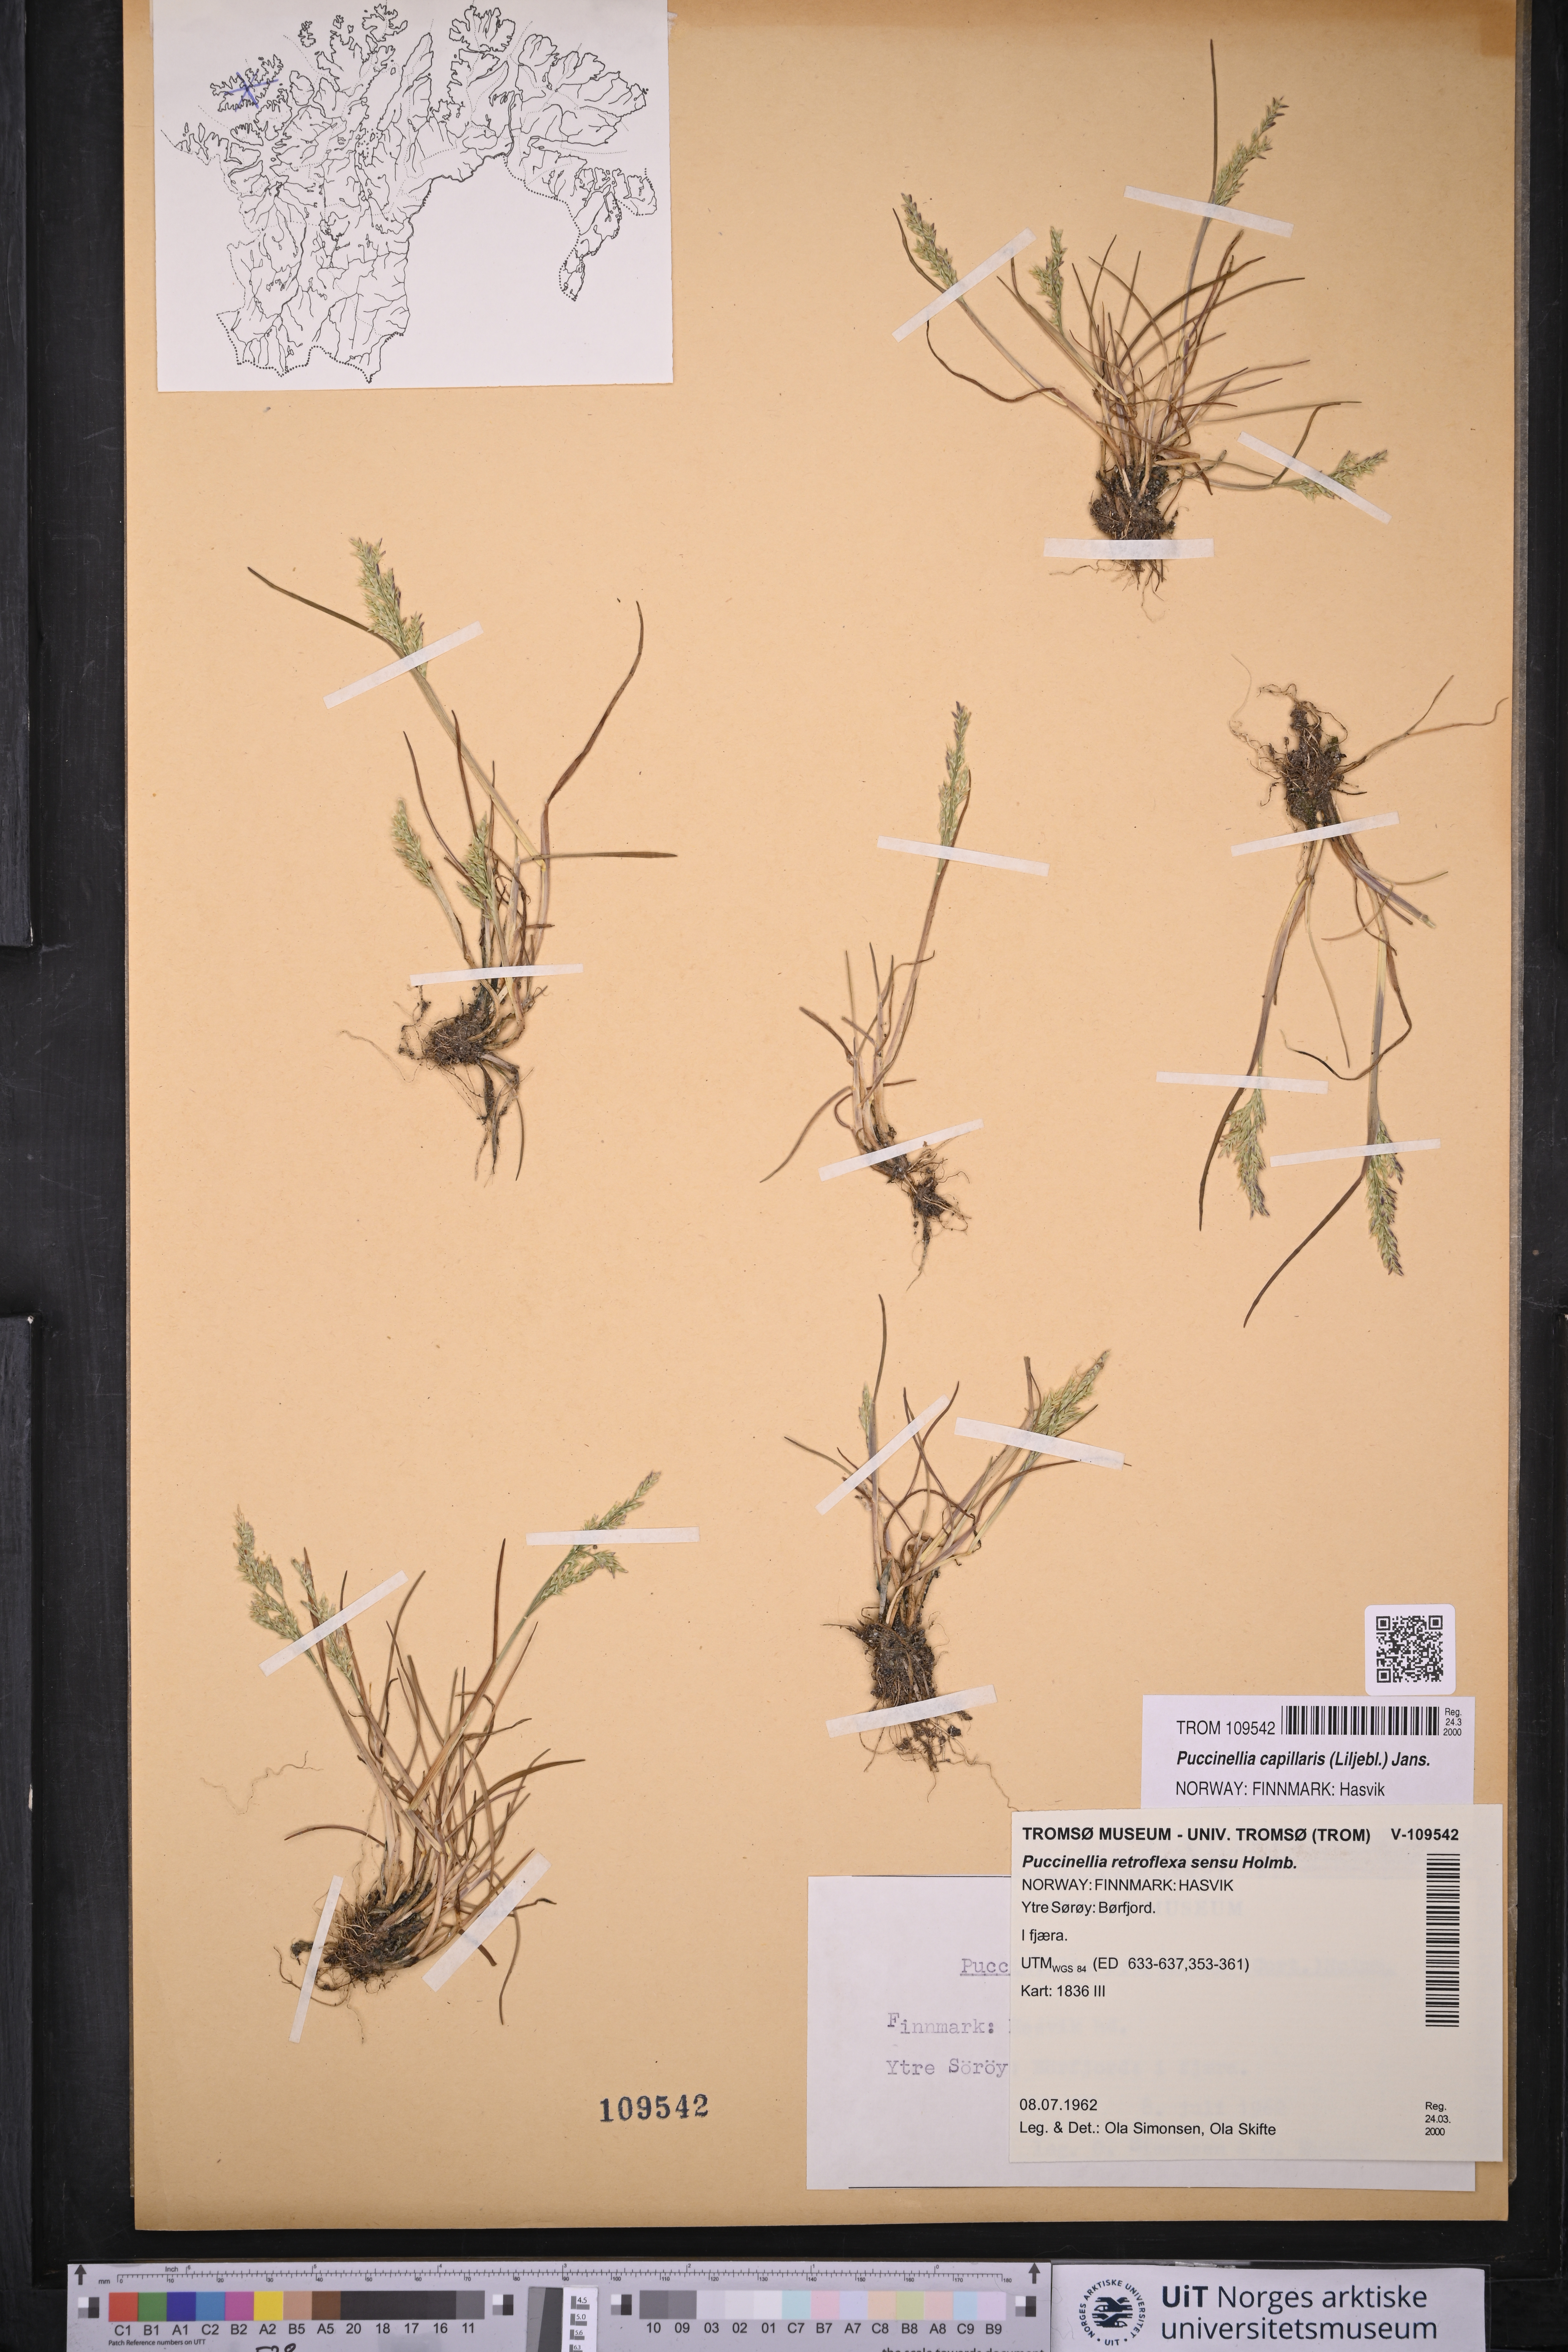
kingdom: Plantae
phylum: Tracheophyta
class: Liliopsida
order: Poales
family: Poaceae
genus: Puccinellia
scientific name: Puccinellia distans
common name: Weeping alkaligrass
